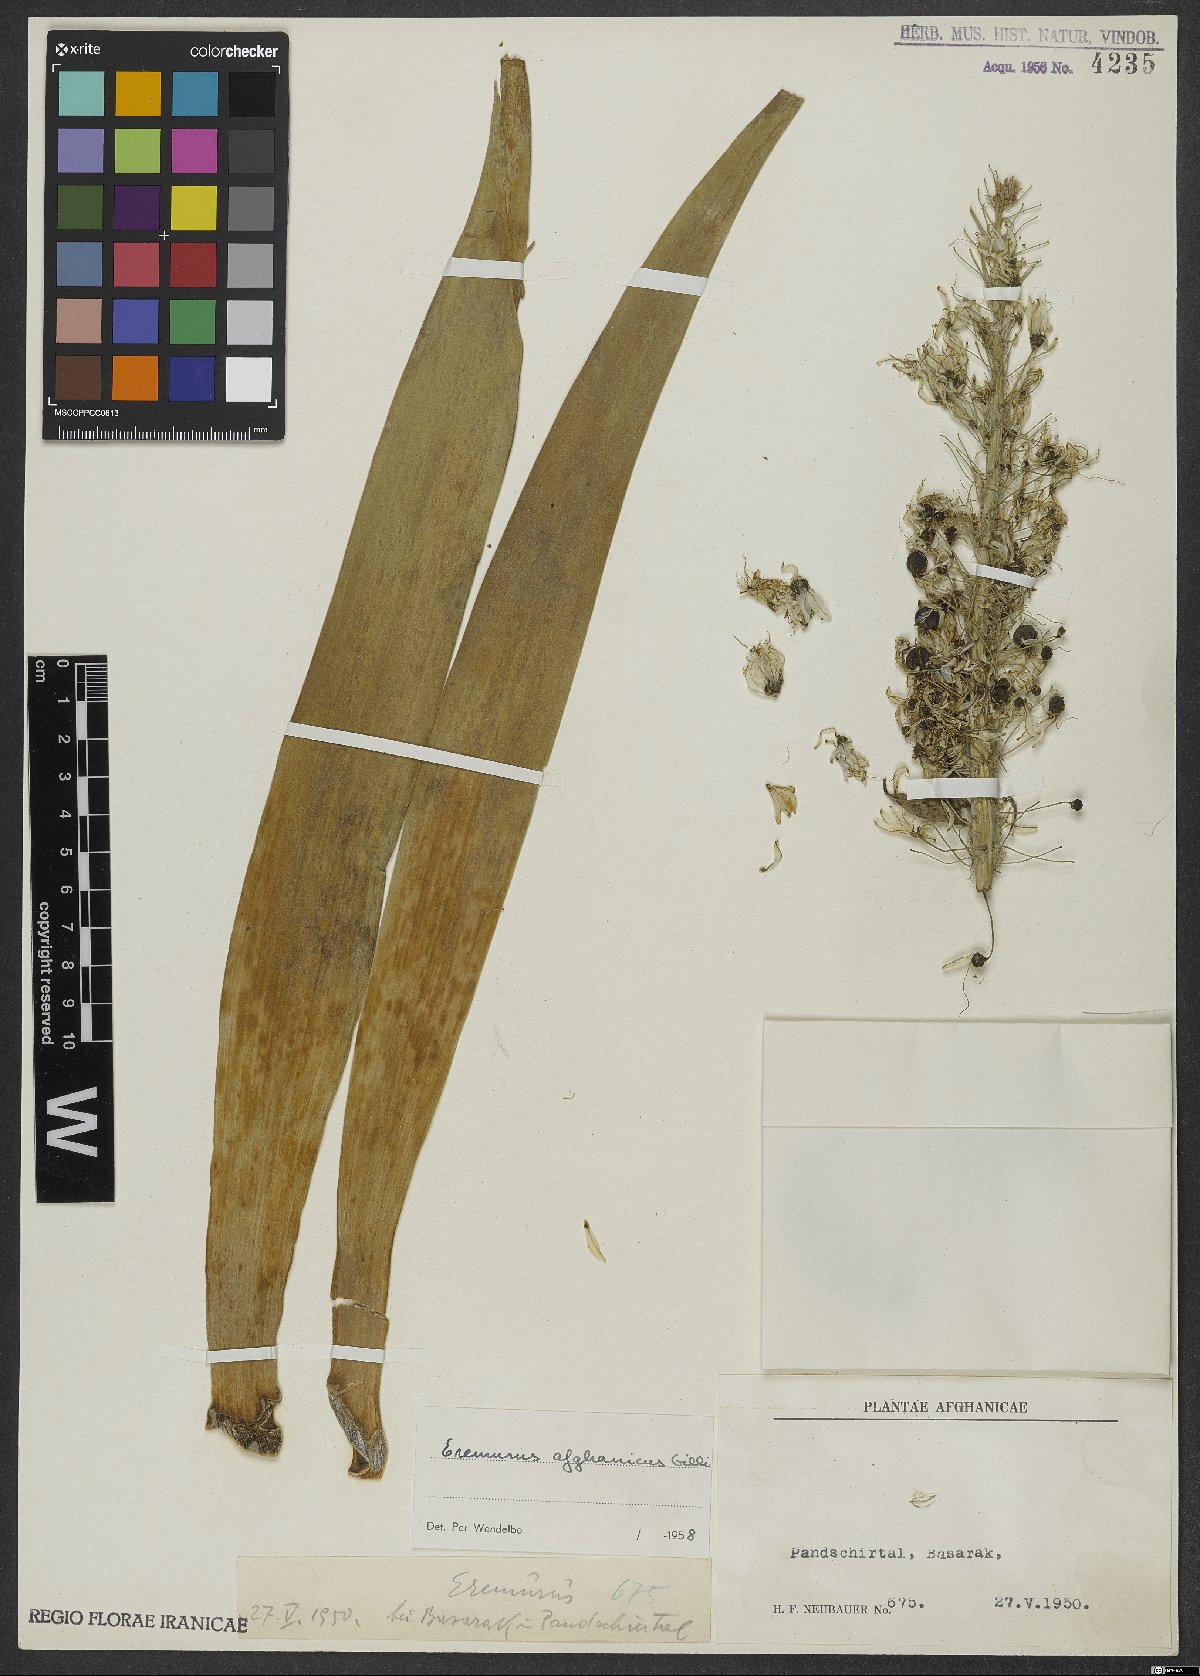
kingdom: Plantae
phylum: Tracheophyta
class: Liliopsida
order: Asparagales
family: Asphodelaceae
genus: Eremurus
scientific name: Eremurus afghanicus
